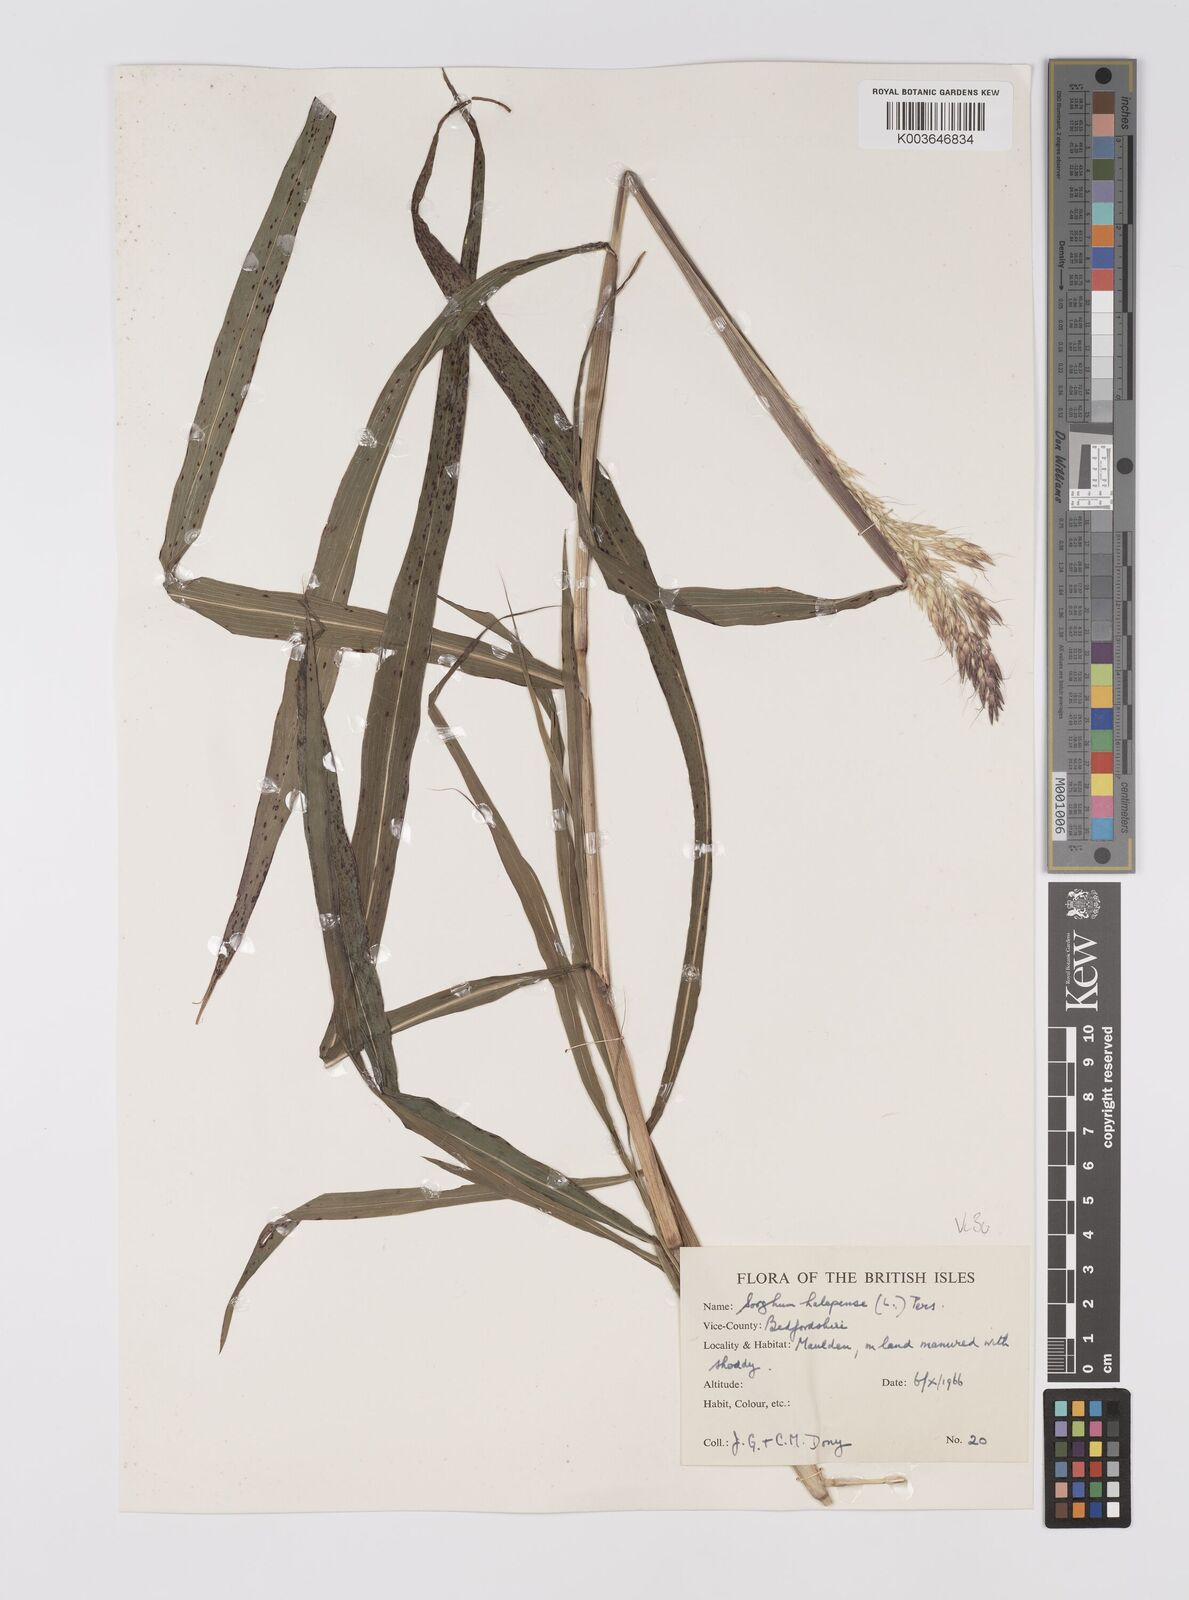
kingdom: Plantae
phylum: Tracheophyta
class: Liliopsida
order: Poales
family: Poaceae
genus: Sorghum
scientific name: Sorghum halepense
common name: Johnson-grass
